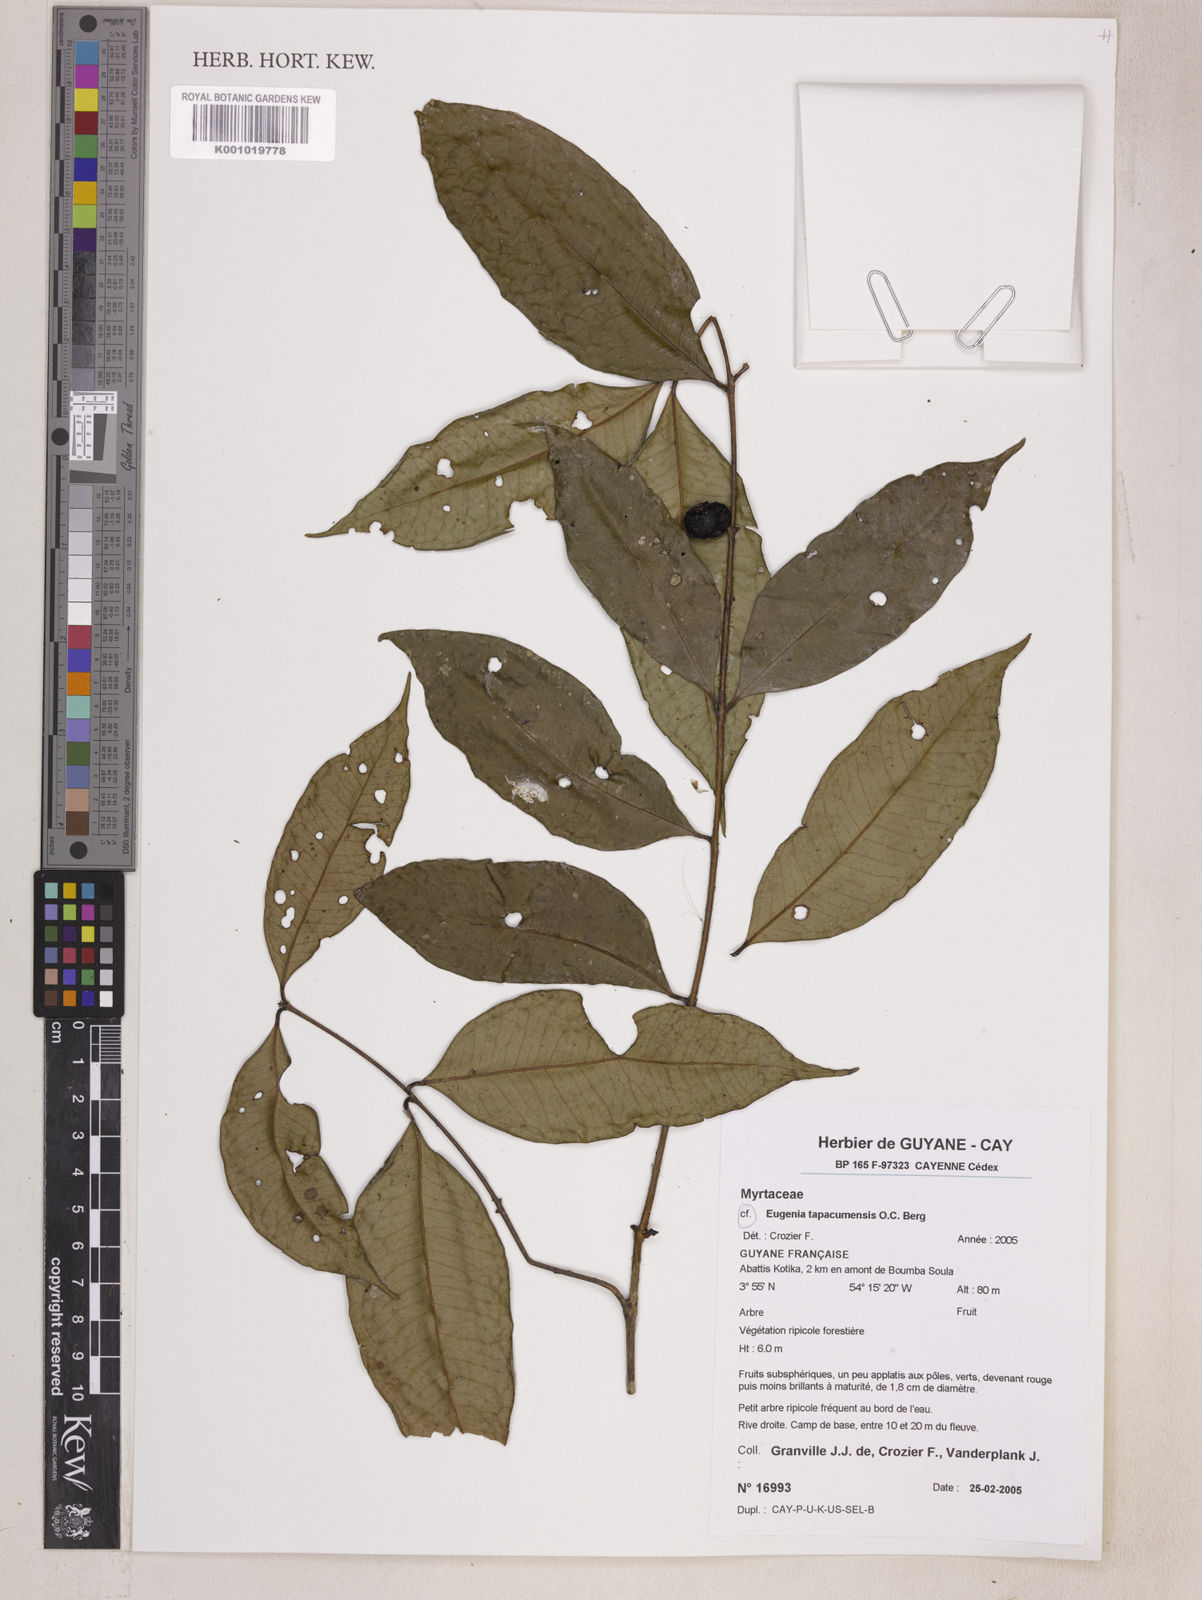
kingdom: Plantae
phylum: Tracheophyta
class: Magnoliopsida
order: Myrtales
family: Myrtaceae
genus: Eugenia
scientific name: Eugenia stictopetala
